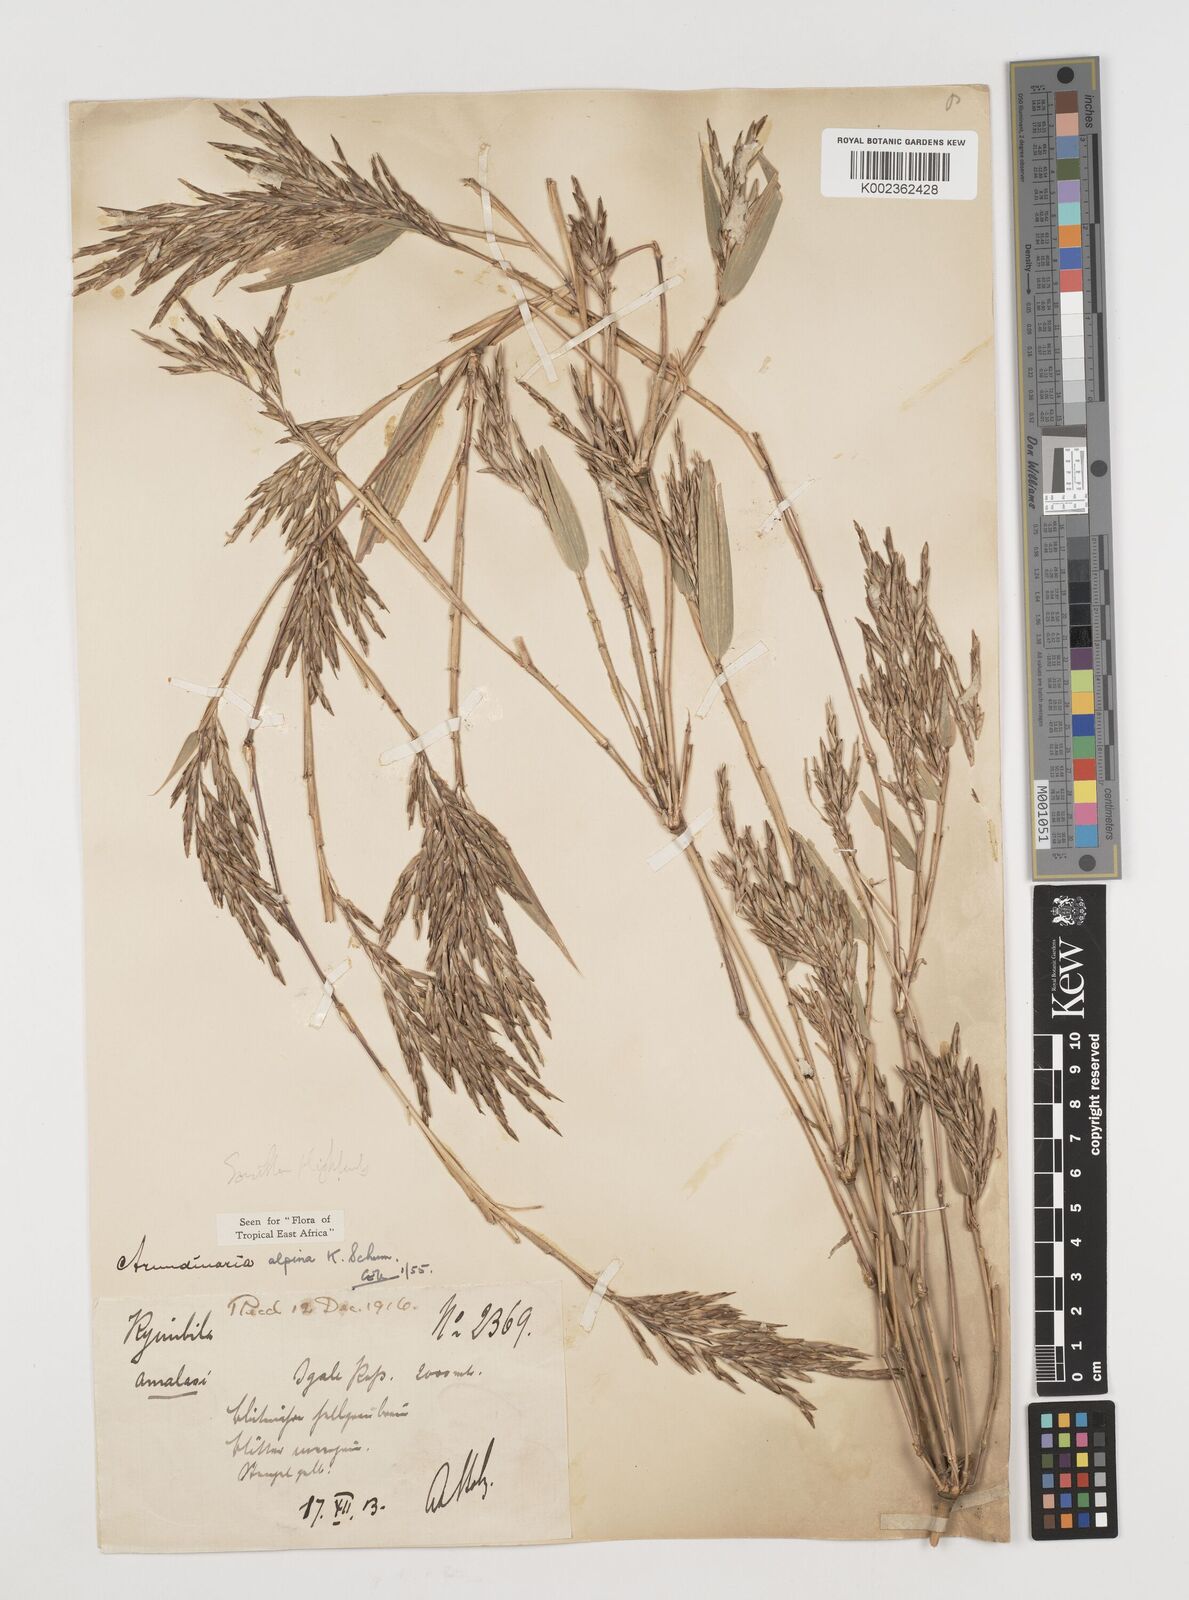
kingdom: Plantae
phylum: Tracheophyta
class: Liliopsida
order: Poales
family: Poaceae
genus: Oldeania
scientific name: Oldeania alpina
